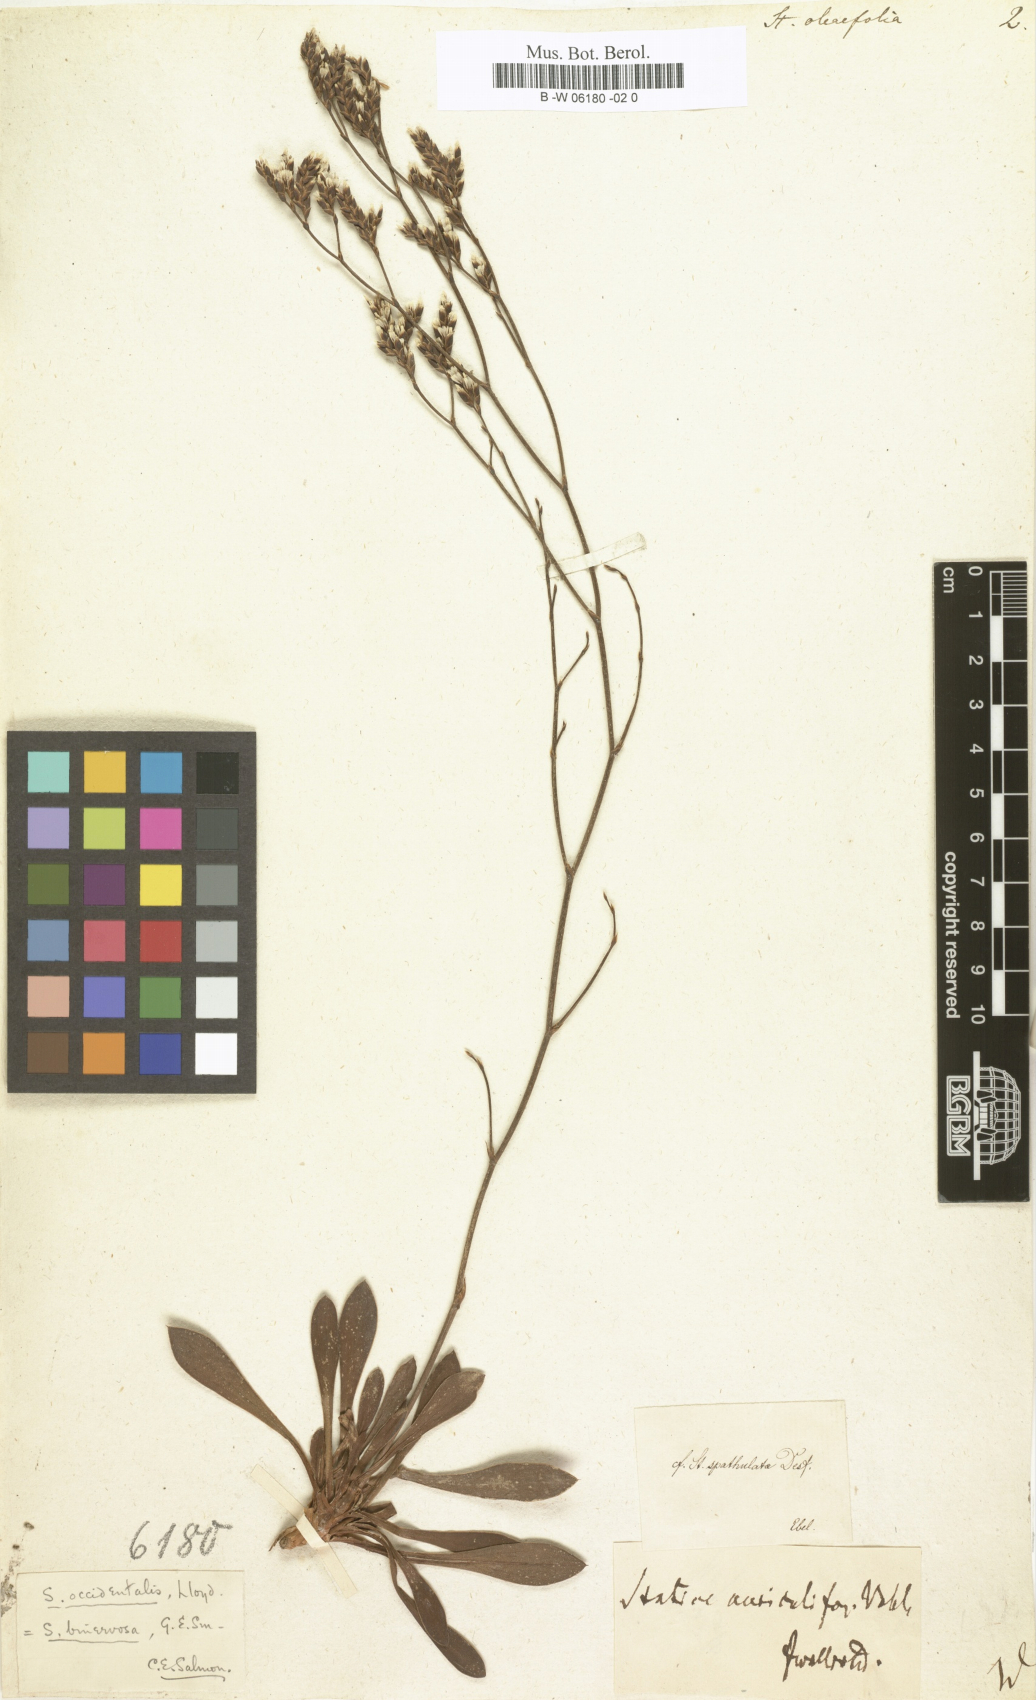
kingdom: Plantae
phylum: Tracheophyta
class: Magnoliopsida
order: Caryophyllales
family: Plumbaginaceae
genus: Limonium
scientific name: Limonium
